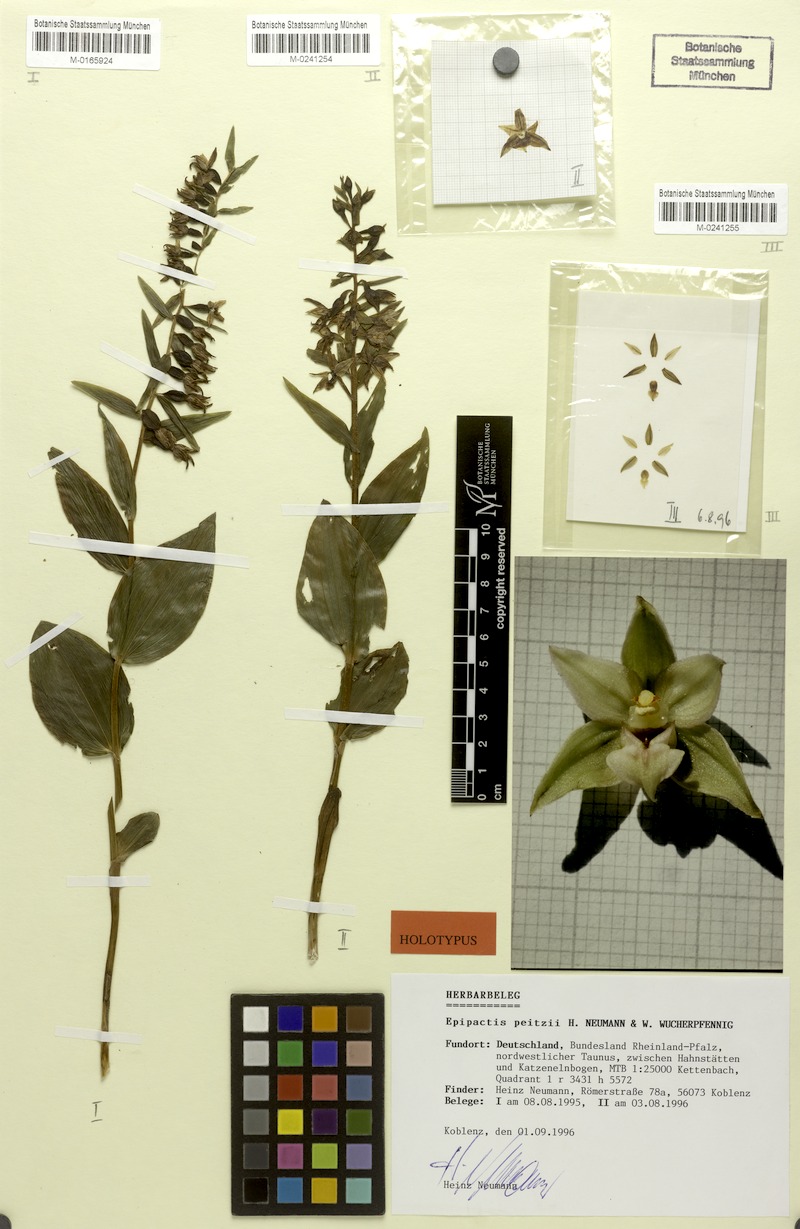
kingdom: Plantae
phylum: Tracheophyta
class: Liliopsida
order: Asparagales
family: Orchidaceae
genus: Epipactis
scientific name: Epipactis leptochila
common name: Narrow-lipped helleborine
